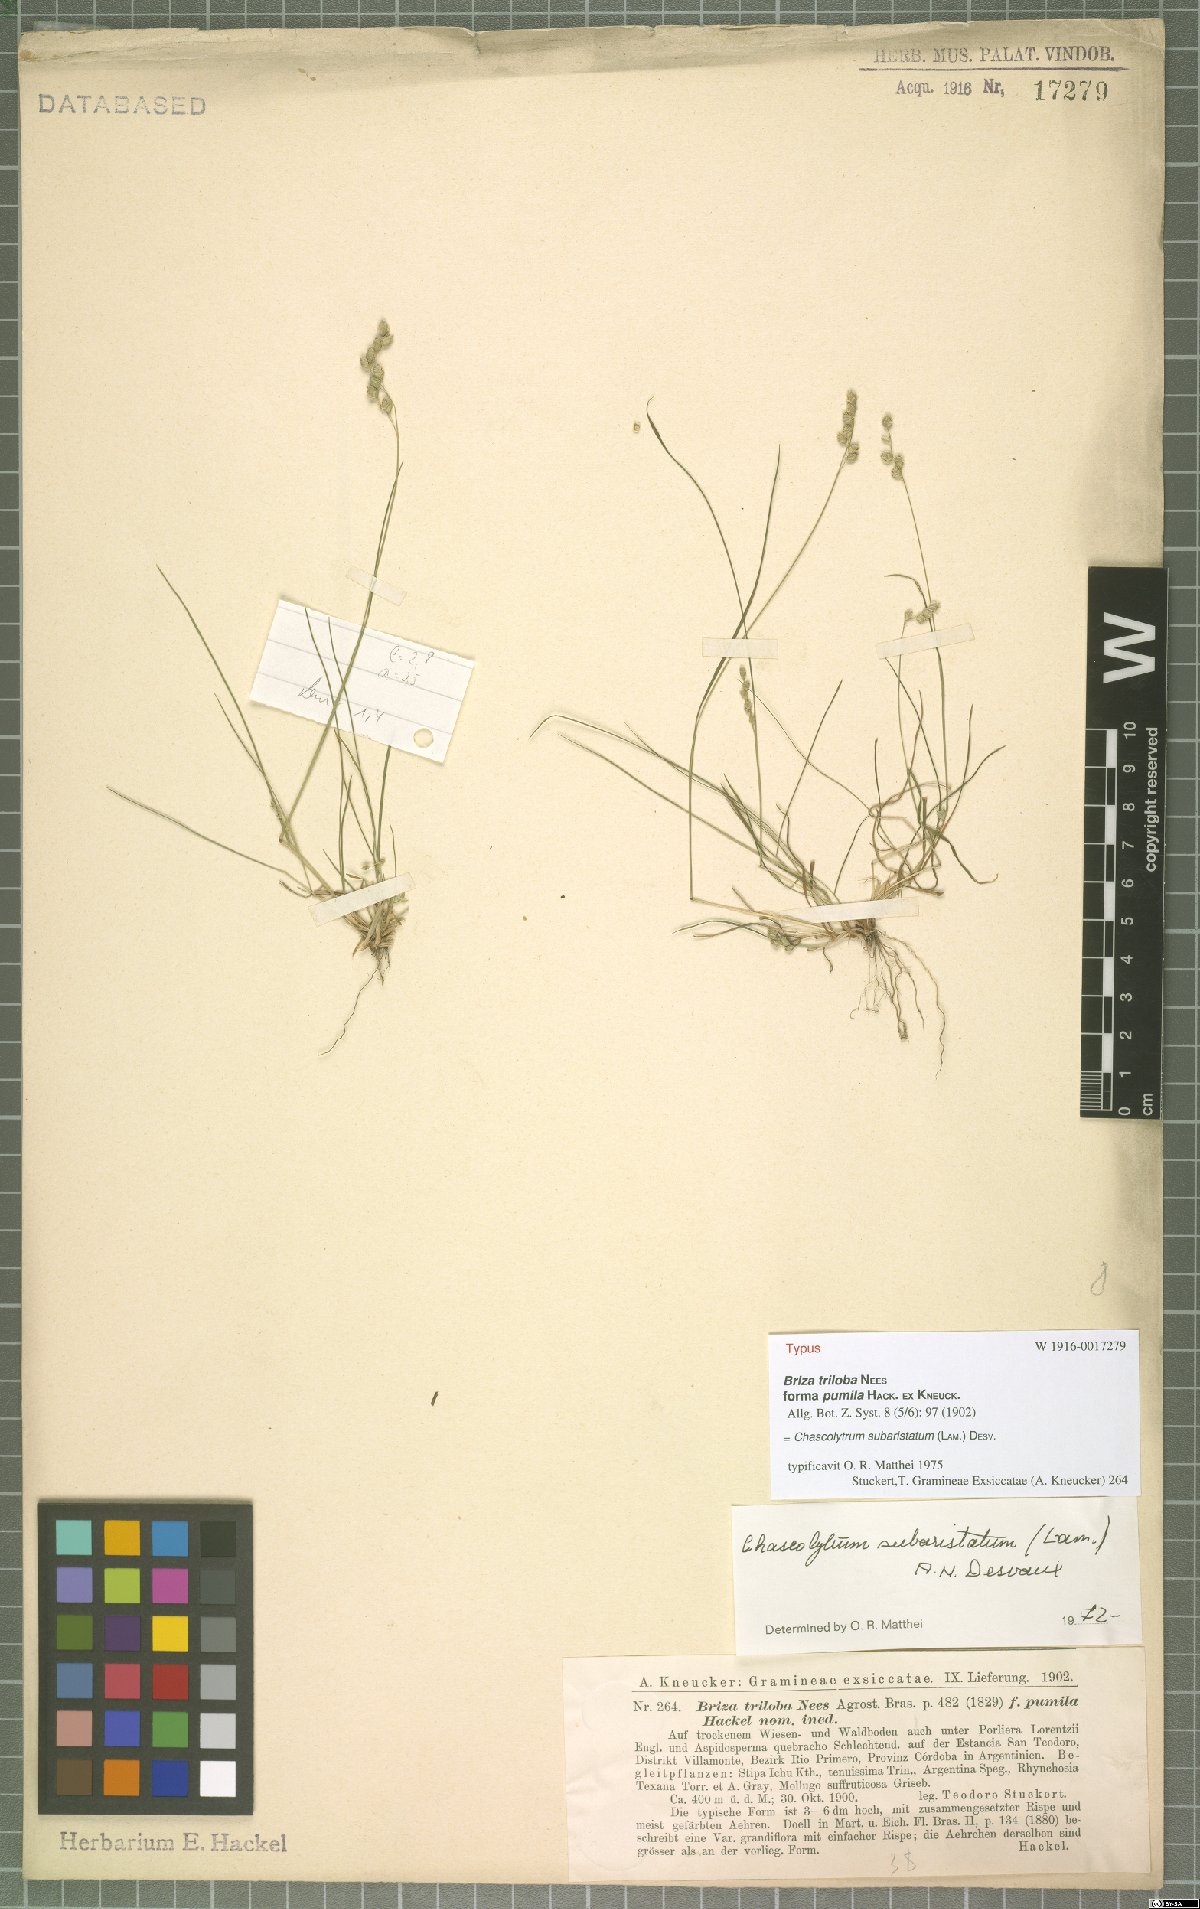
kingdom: Plantae
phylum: Tracheophyta
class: Liliopsida
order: Poales
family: Poaceae
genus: Chascolytrum
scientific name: Chascolytrum subaristatum
